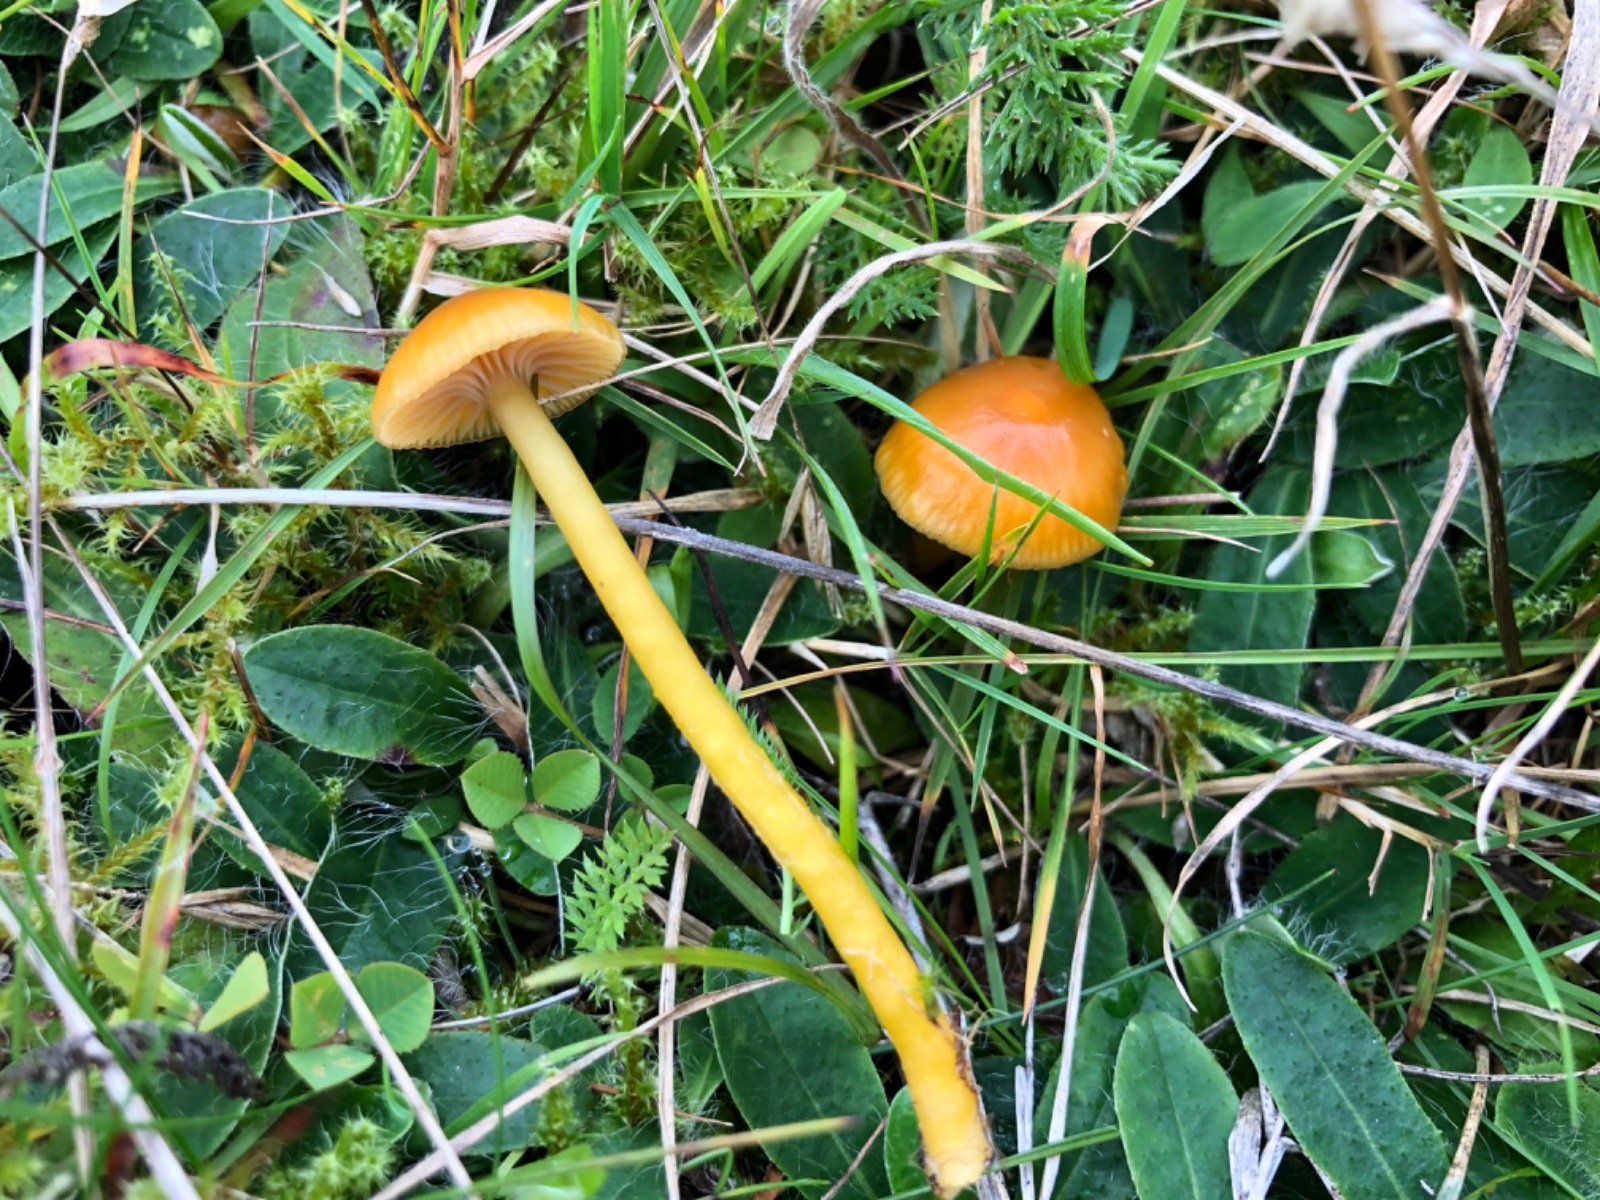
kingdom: Fungi
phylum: Basidiomycota
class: Agaricomycetes
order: Agaricales
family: Hygrophoraceae
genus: Gliophorus
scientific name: Gliophorus laetus
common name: brusk-vokshat
